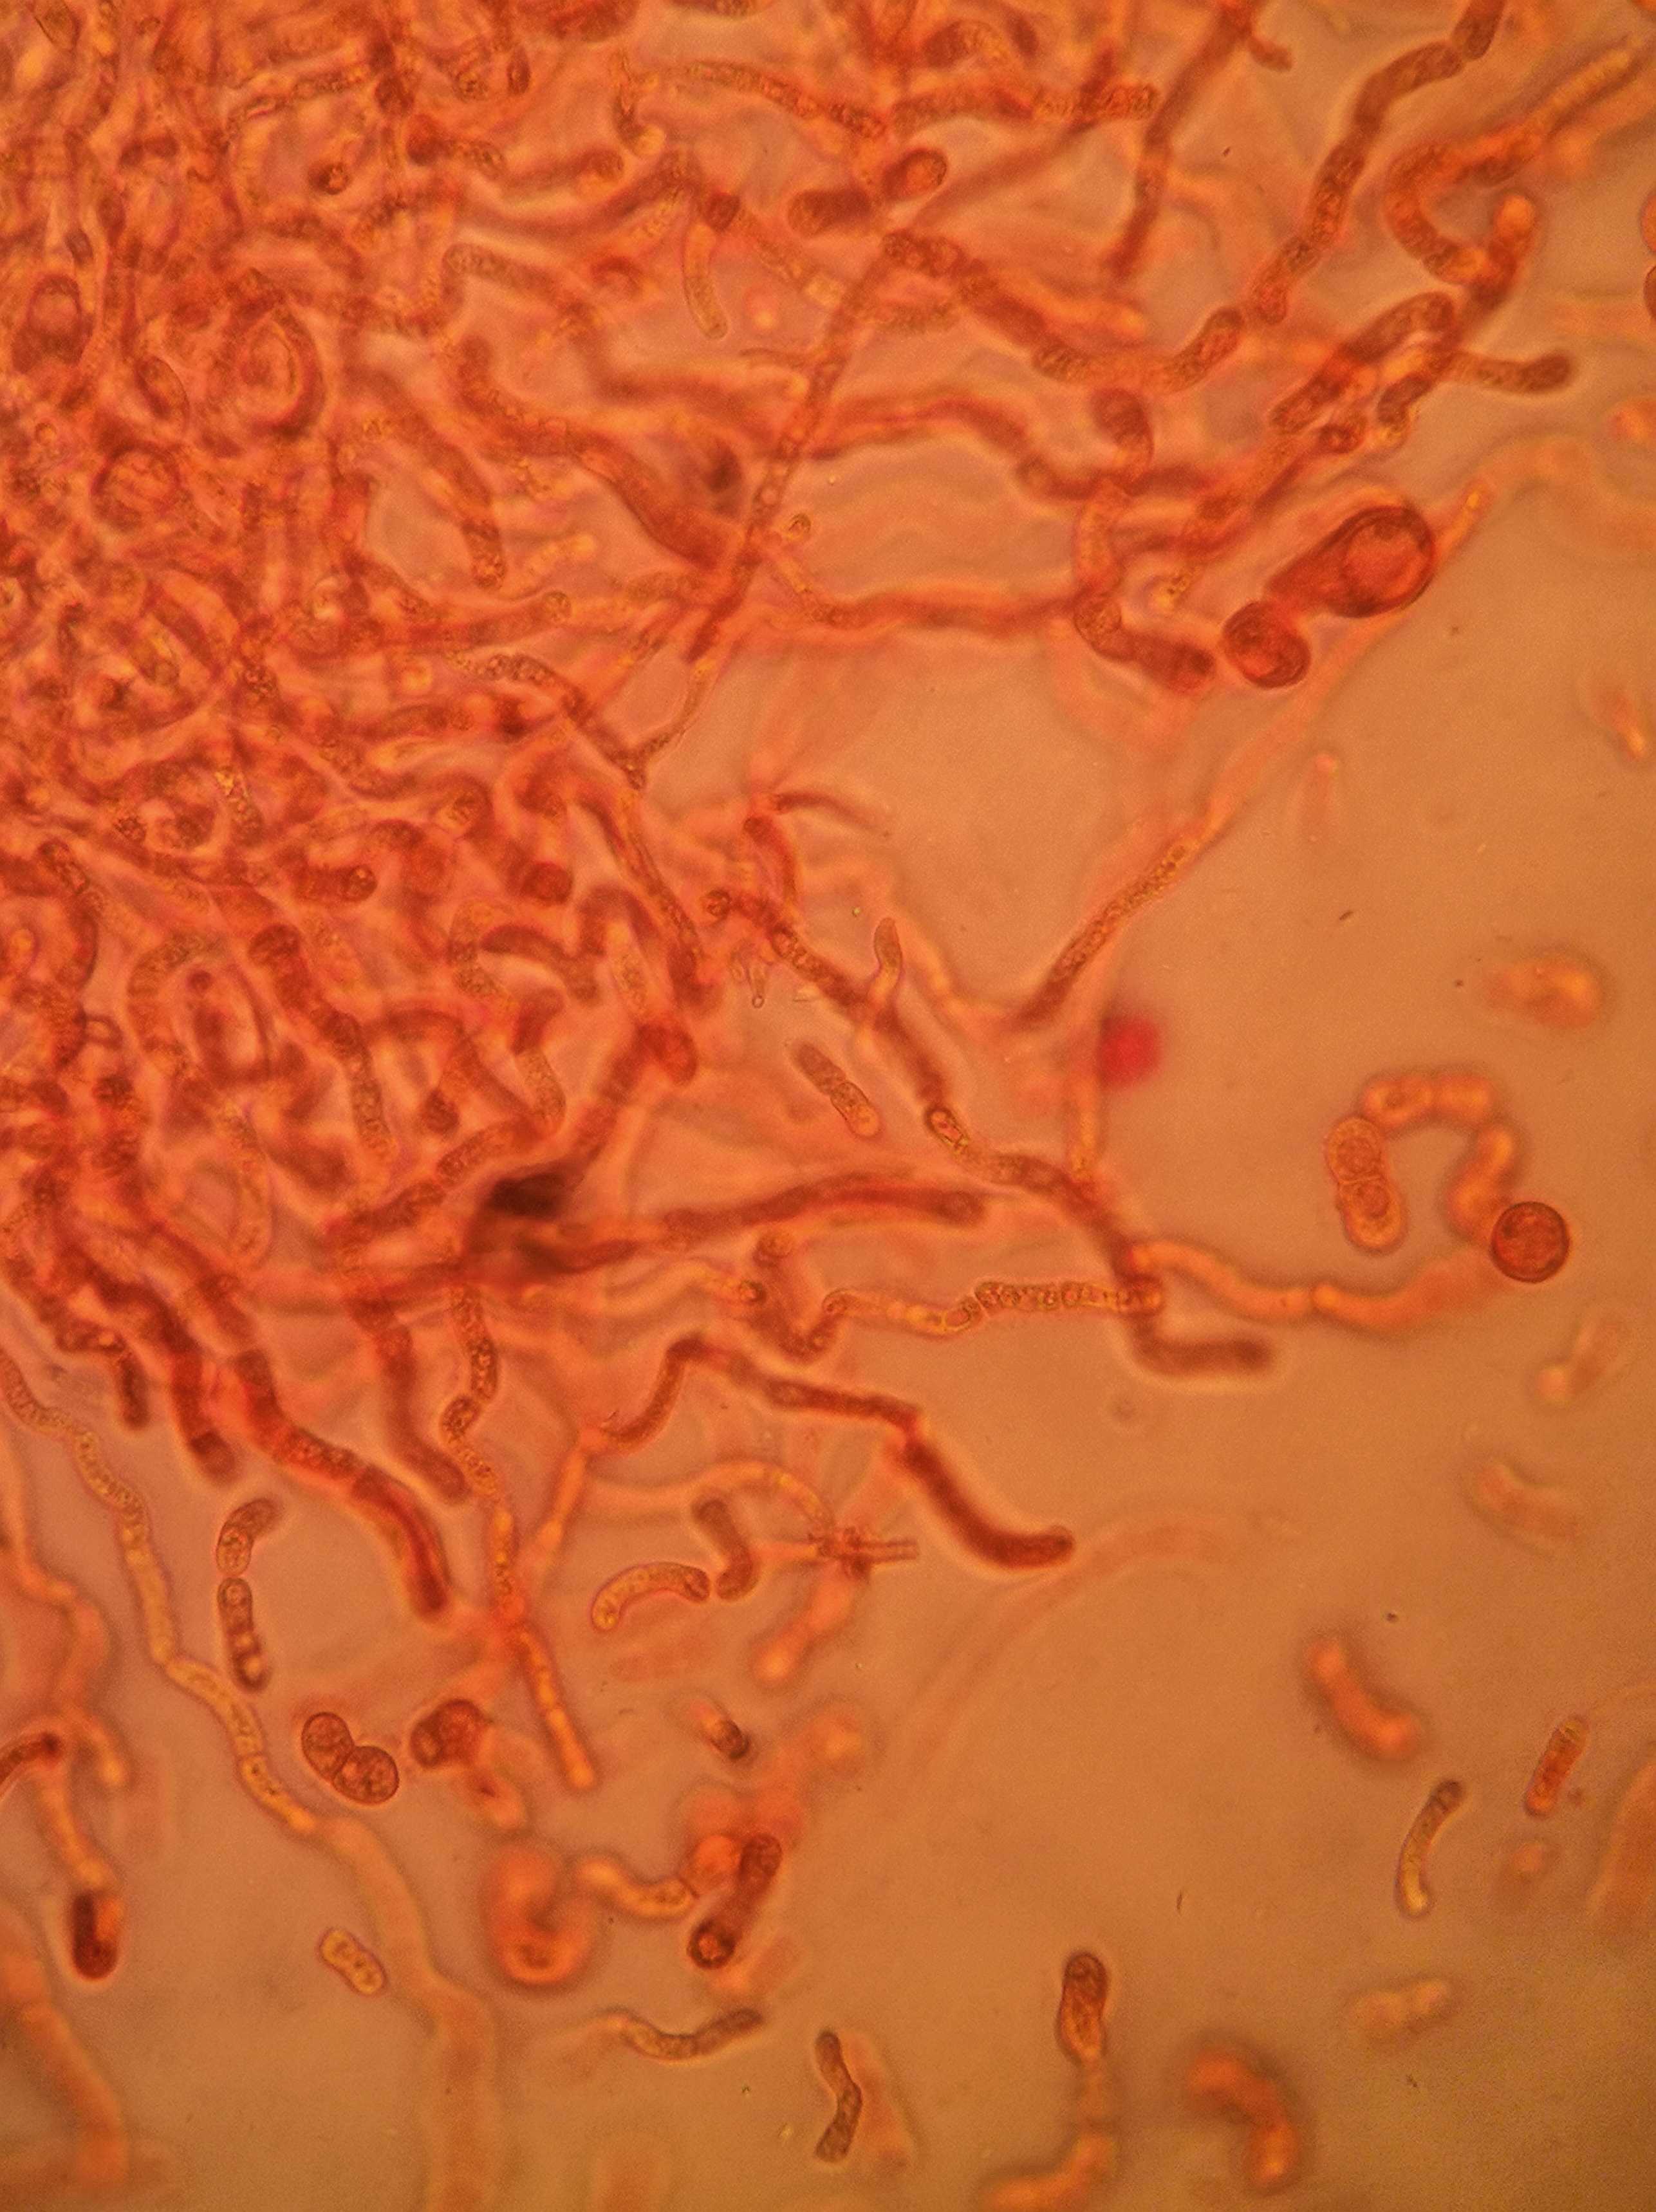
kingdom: Fungi
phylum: Basidiomycota
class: Dacrymycetes
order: Dacrymycetales
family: Dacrymycetaceae
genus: Dacrymyces
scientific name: Dacrymyces stillatus
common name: almindelig tåresvamp
